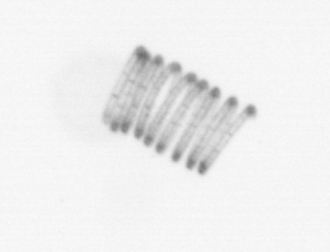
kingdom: Chromista
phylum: Ochrophyta
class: Bacillariophyceae
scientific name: Bacillariophyceae
